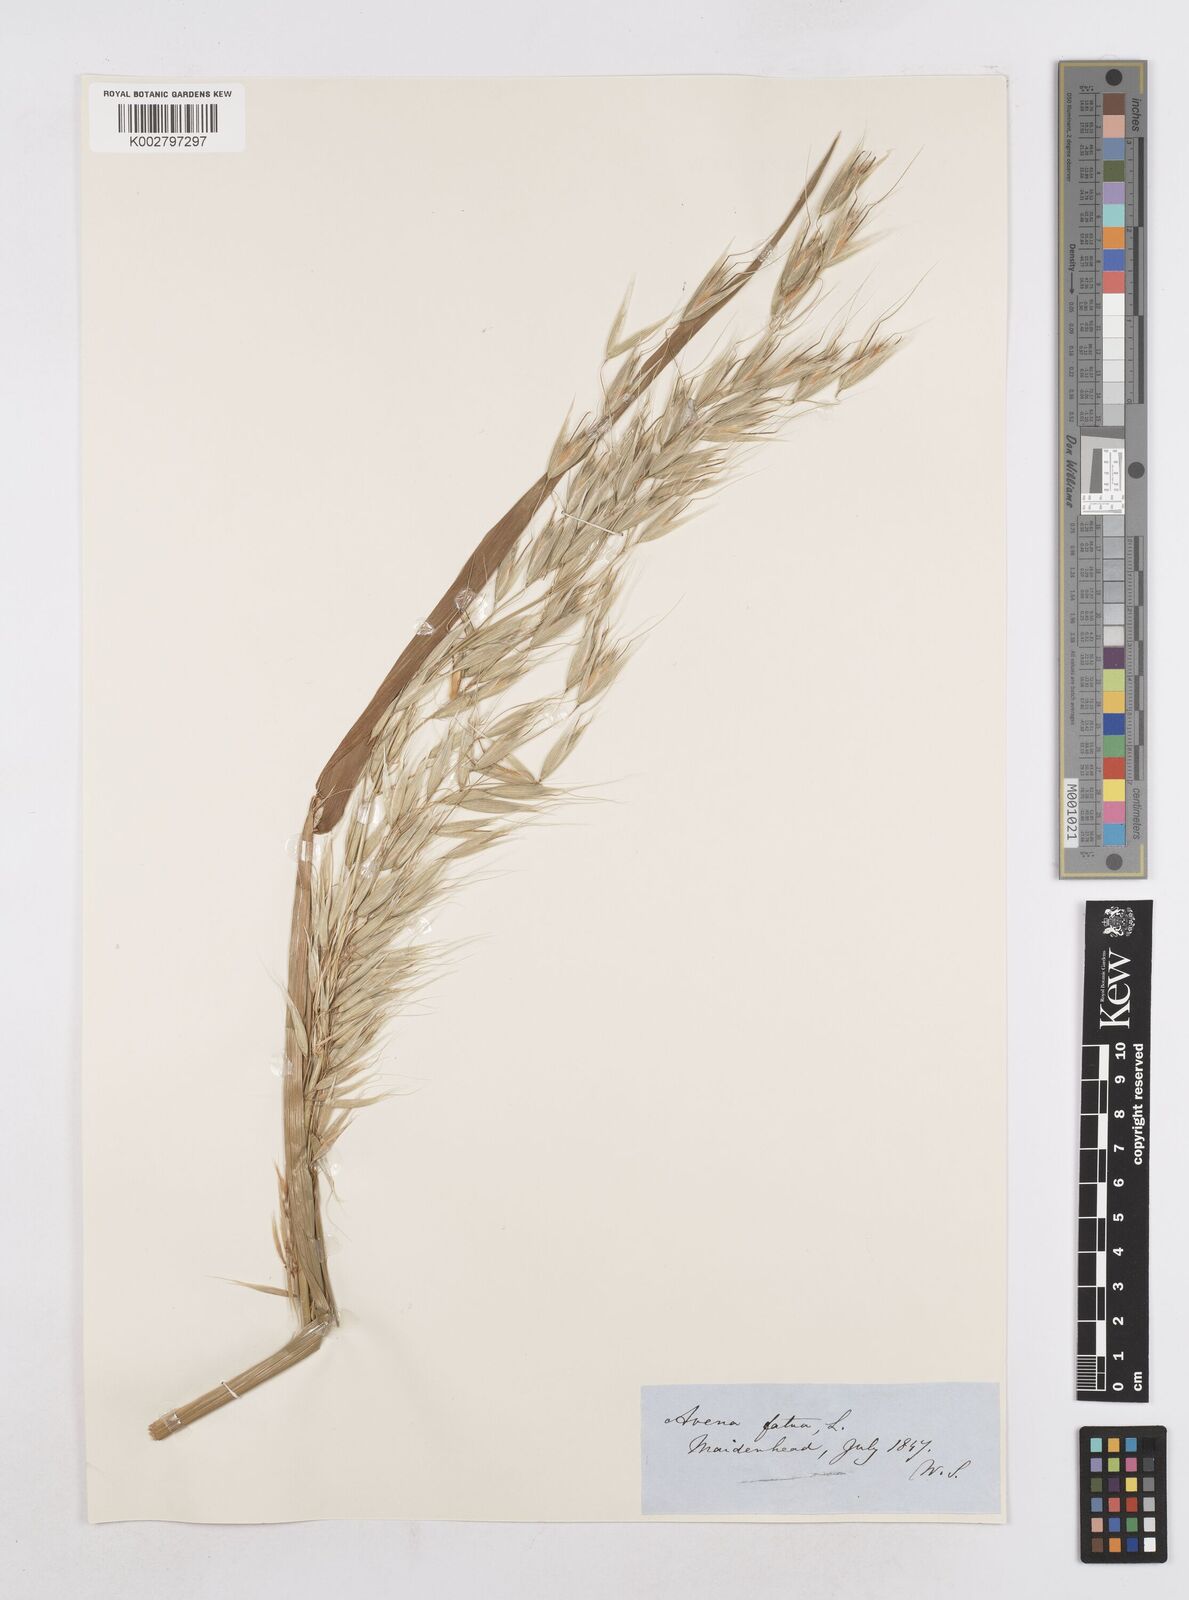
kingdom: Plantae
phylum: Tracheophyta
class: Liliopsida
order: Poales
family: Poaceae
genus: Avena
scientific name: Avena fatua
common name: Wild oat
